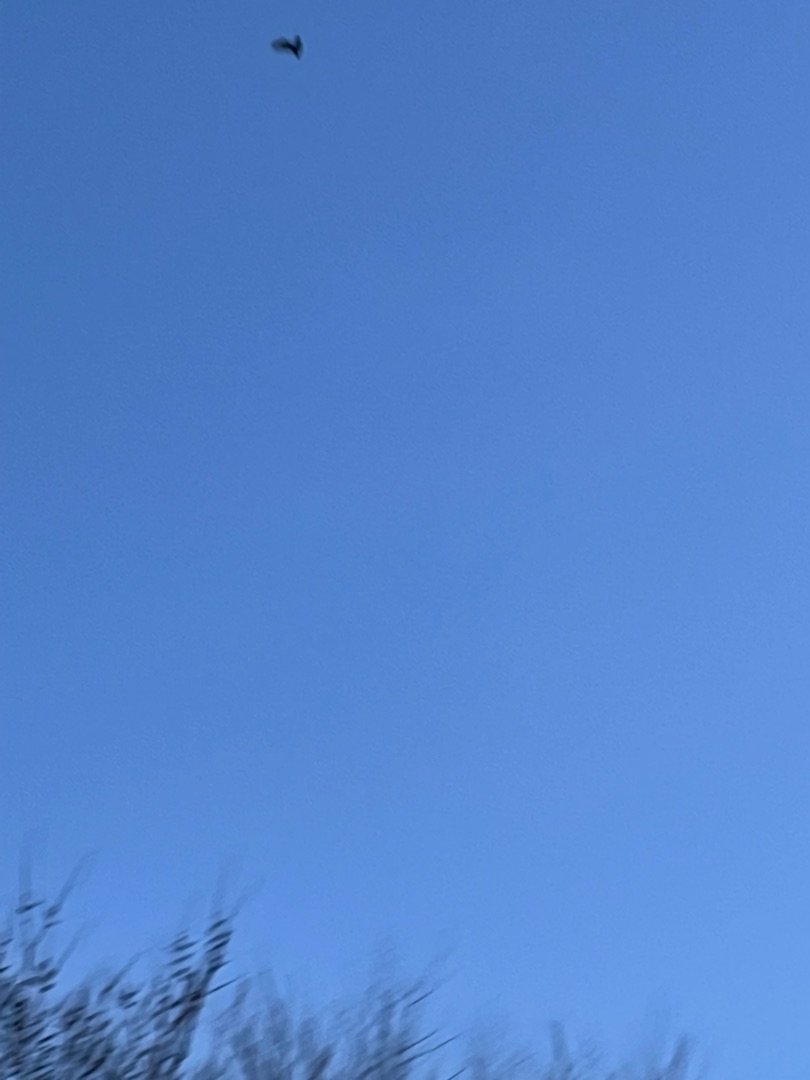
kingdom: Animalia
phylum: Chordata
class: Mammalia
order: Chiroptera
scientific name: Chiroptera
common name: Flagermus
